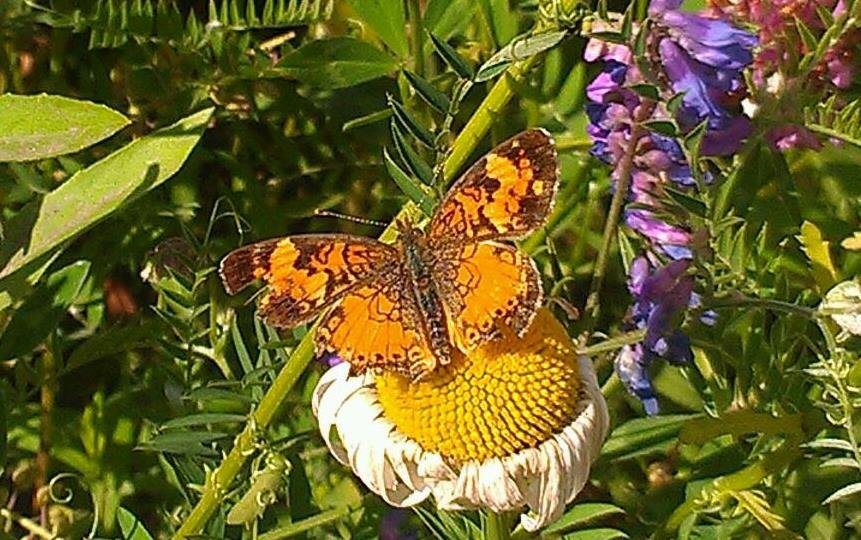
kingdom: Animalia
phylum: Arthropoda
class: Insecta
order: Lepidoptera
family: Nymphalidae
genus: Phyciodes
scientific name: Phyciodes tharos
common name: Northern Crescent
